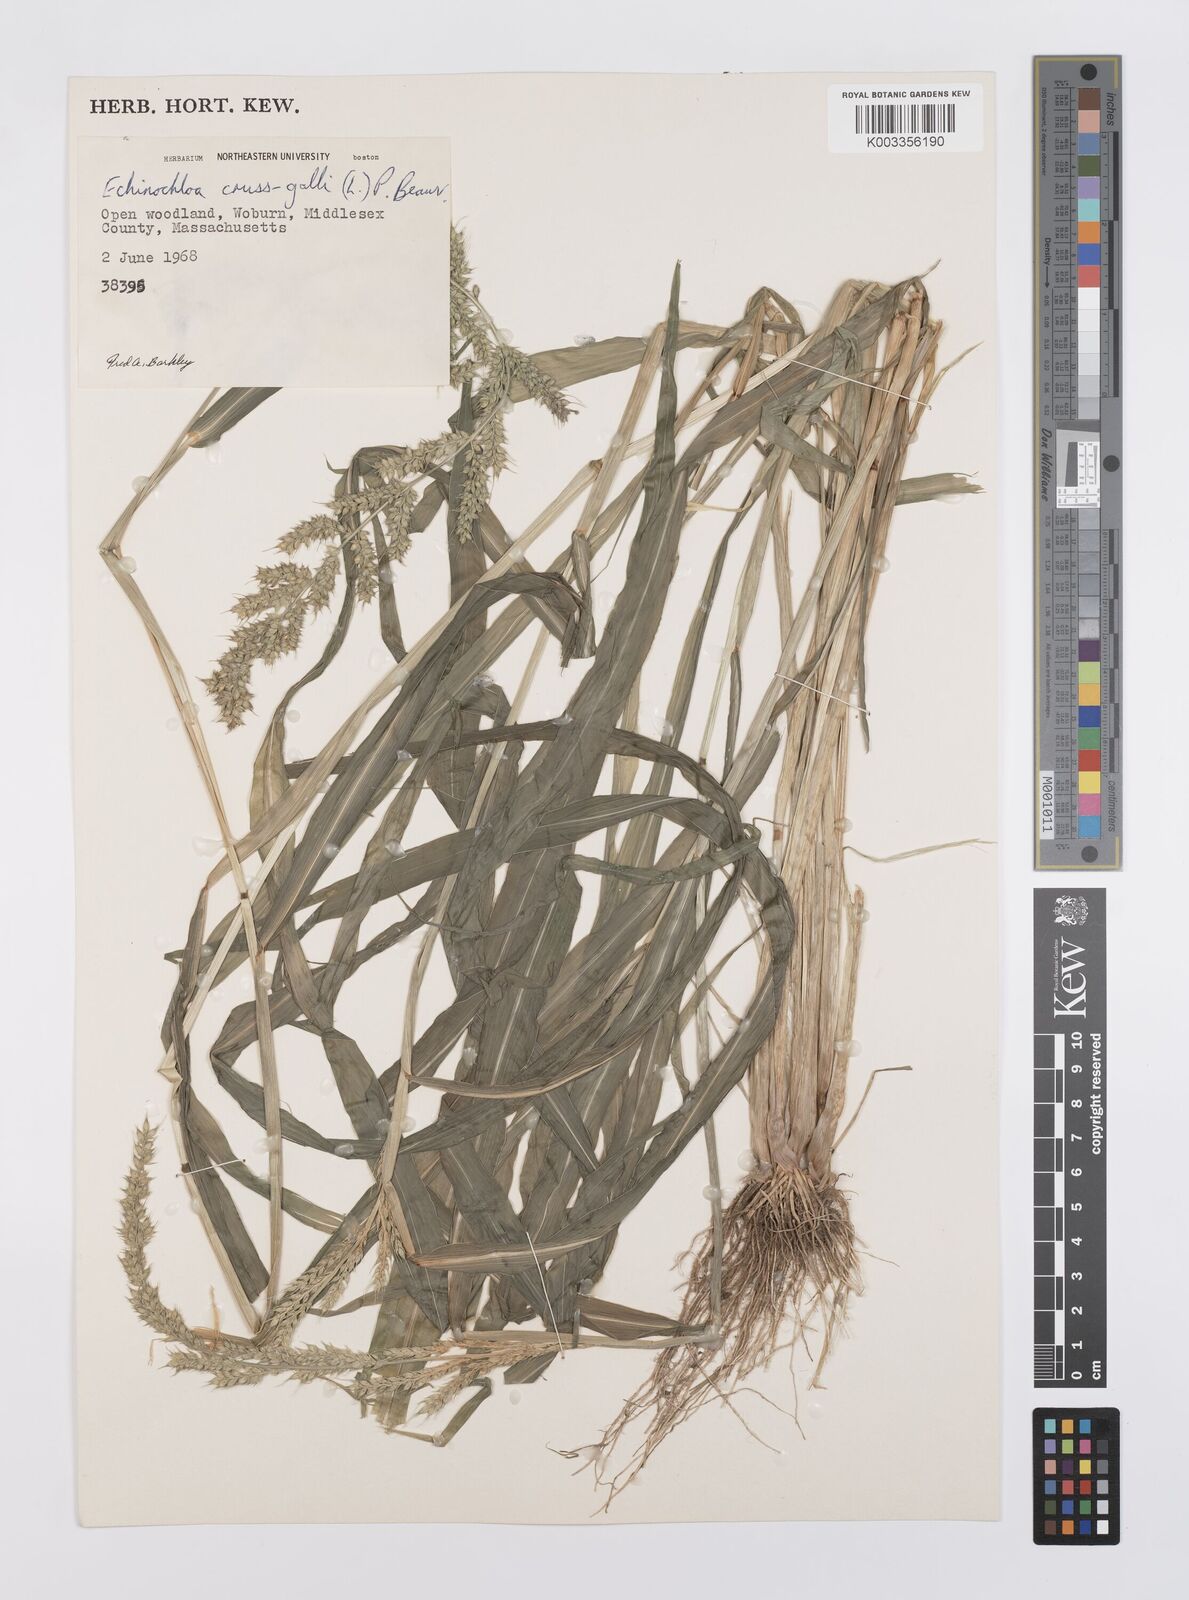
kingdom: Plantae
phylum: Tracheophyta
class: Liliopsida
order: Poales
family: Poaceae
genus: Echinochloa
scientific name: Echinochloa crus-galli
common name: Cockspur
